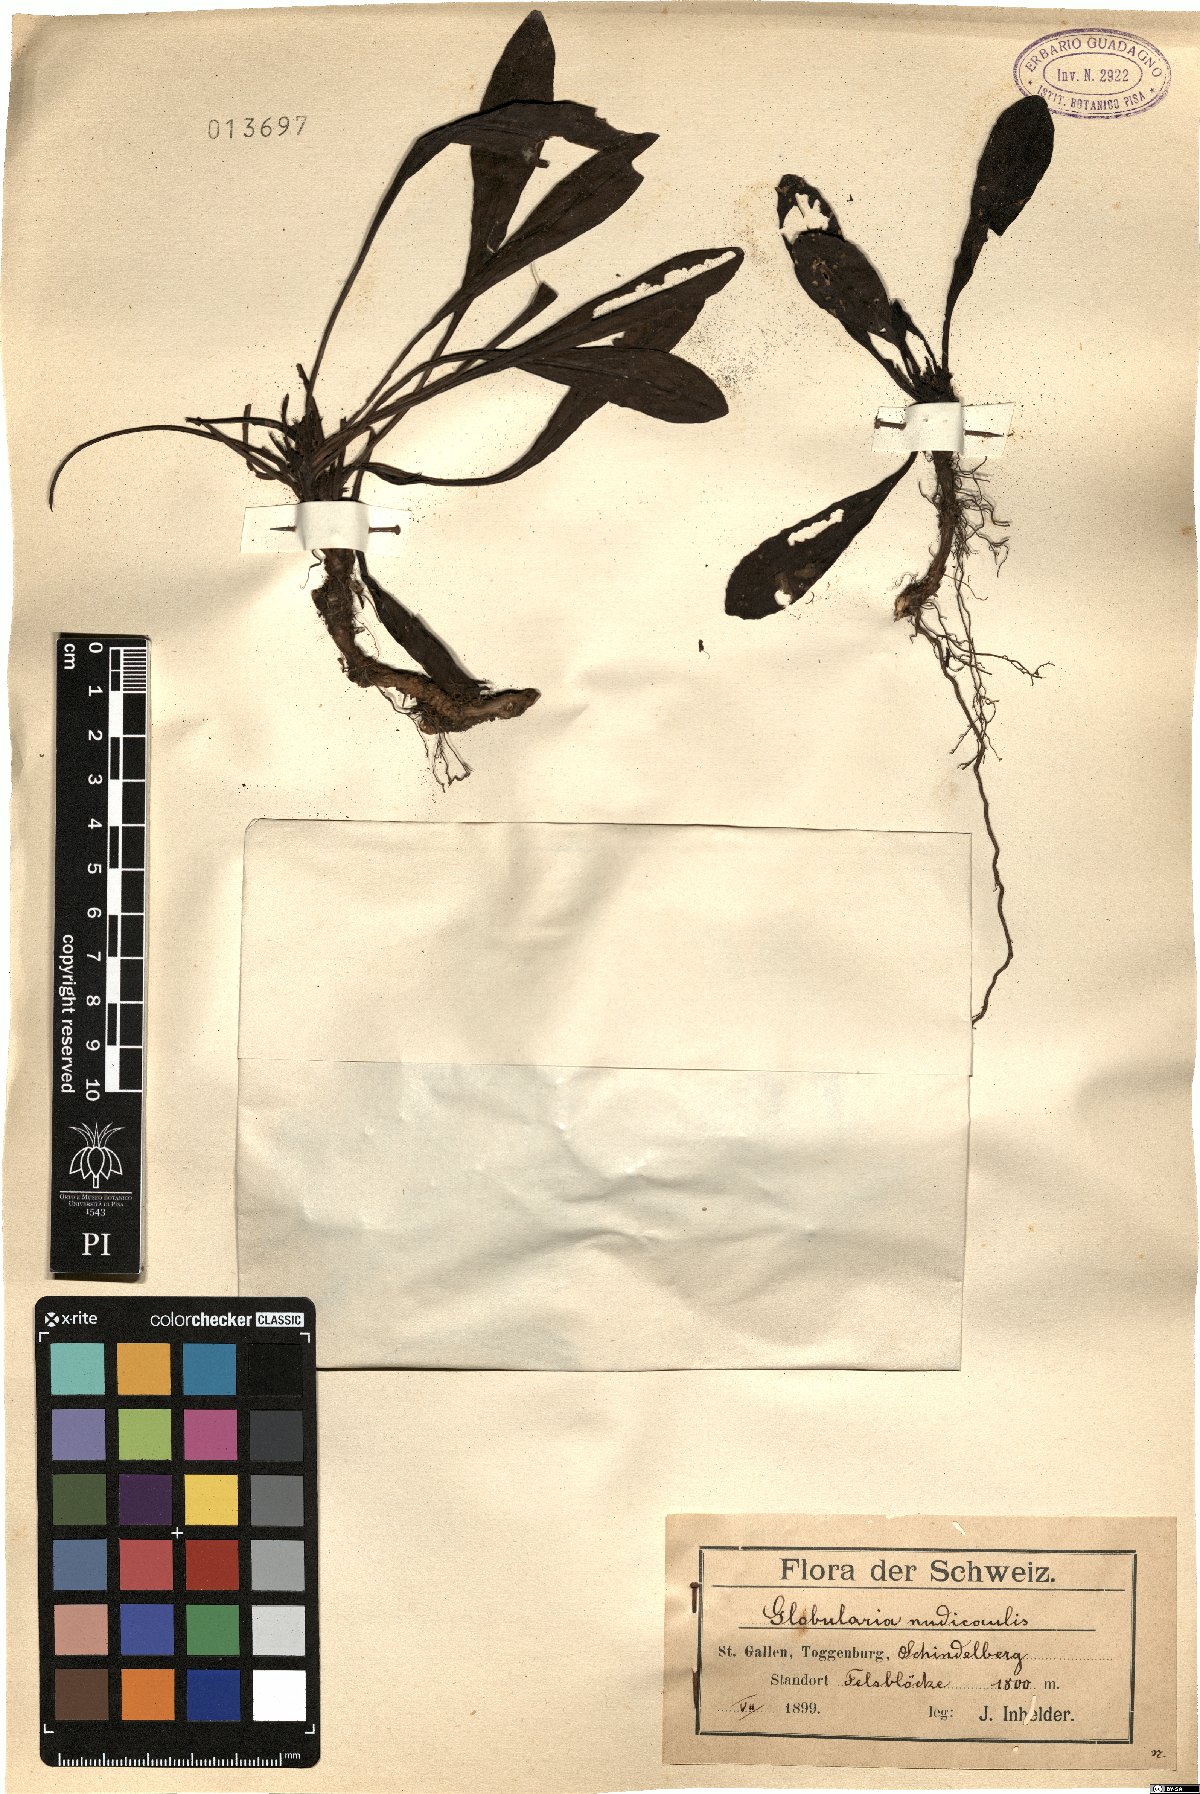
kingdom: Plantae
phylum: Tracheophyta
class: Magnoliopsida
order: Lamiales
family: Plantaginaceae
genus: Globularia
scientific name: Globularia nudicaulis
